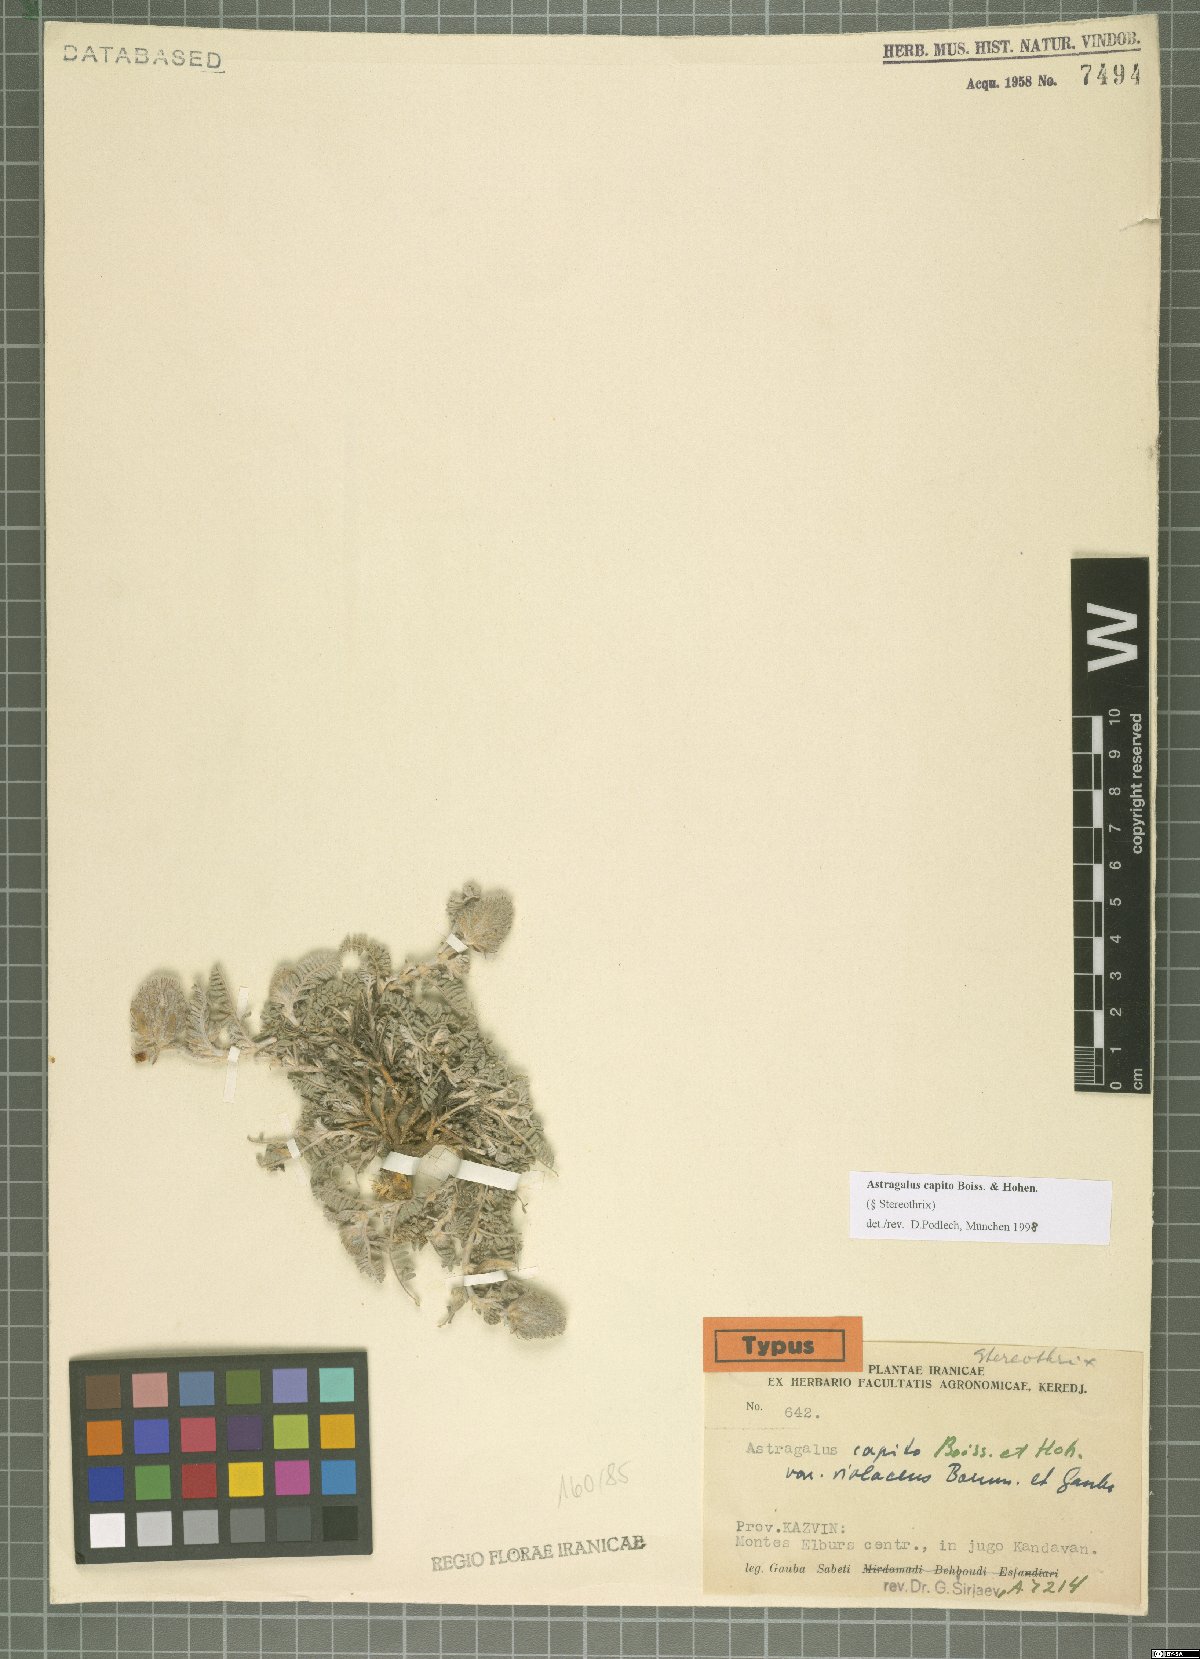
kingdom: Plantae
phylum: Tracheophyta
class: Magnoliopsida
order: Fabales
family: Fabaceae
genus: Astragalus
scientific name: Astragalus capito
